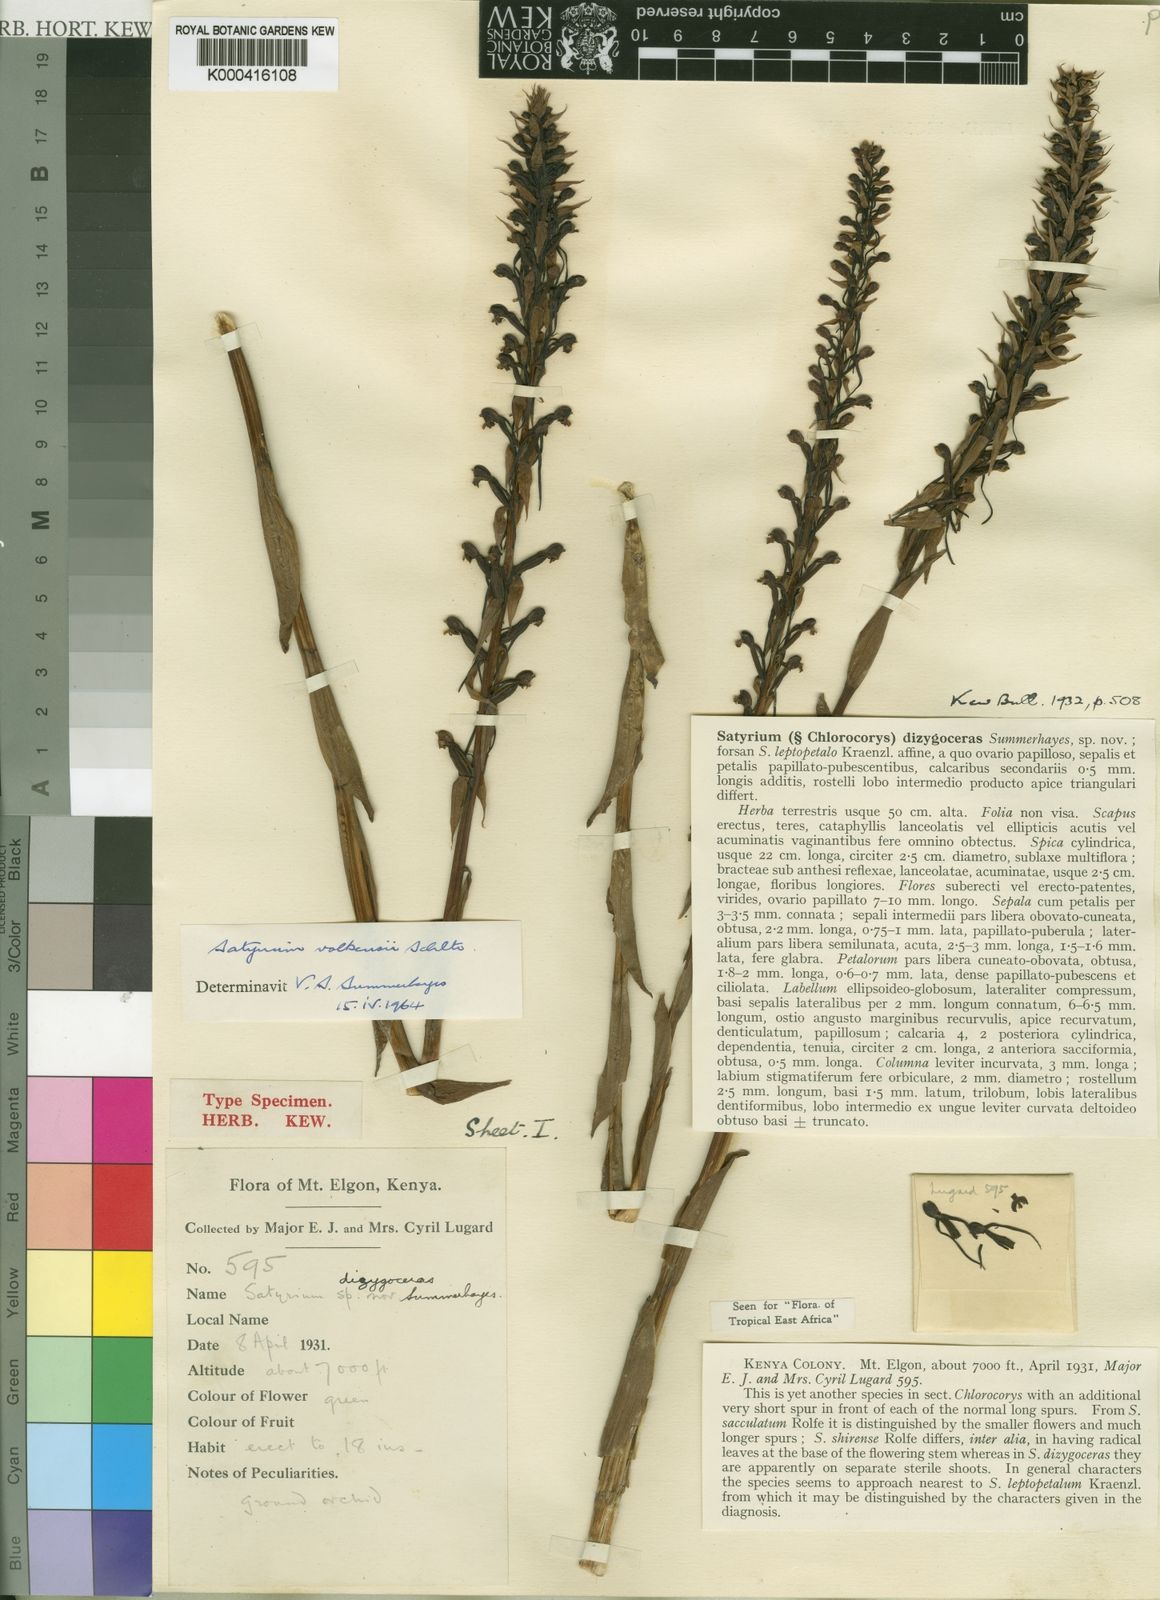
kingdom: Plantae
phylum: Tracheophyta
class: Liliopsida
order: Asparagales
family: Orchidaceae
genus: Satyrium
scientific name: Satyrium volkensii
